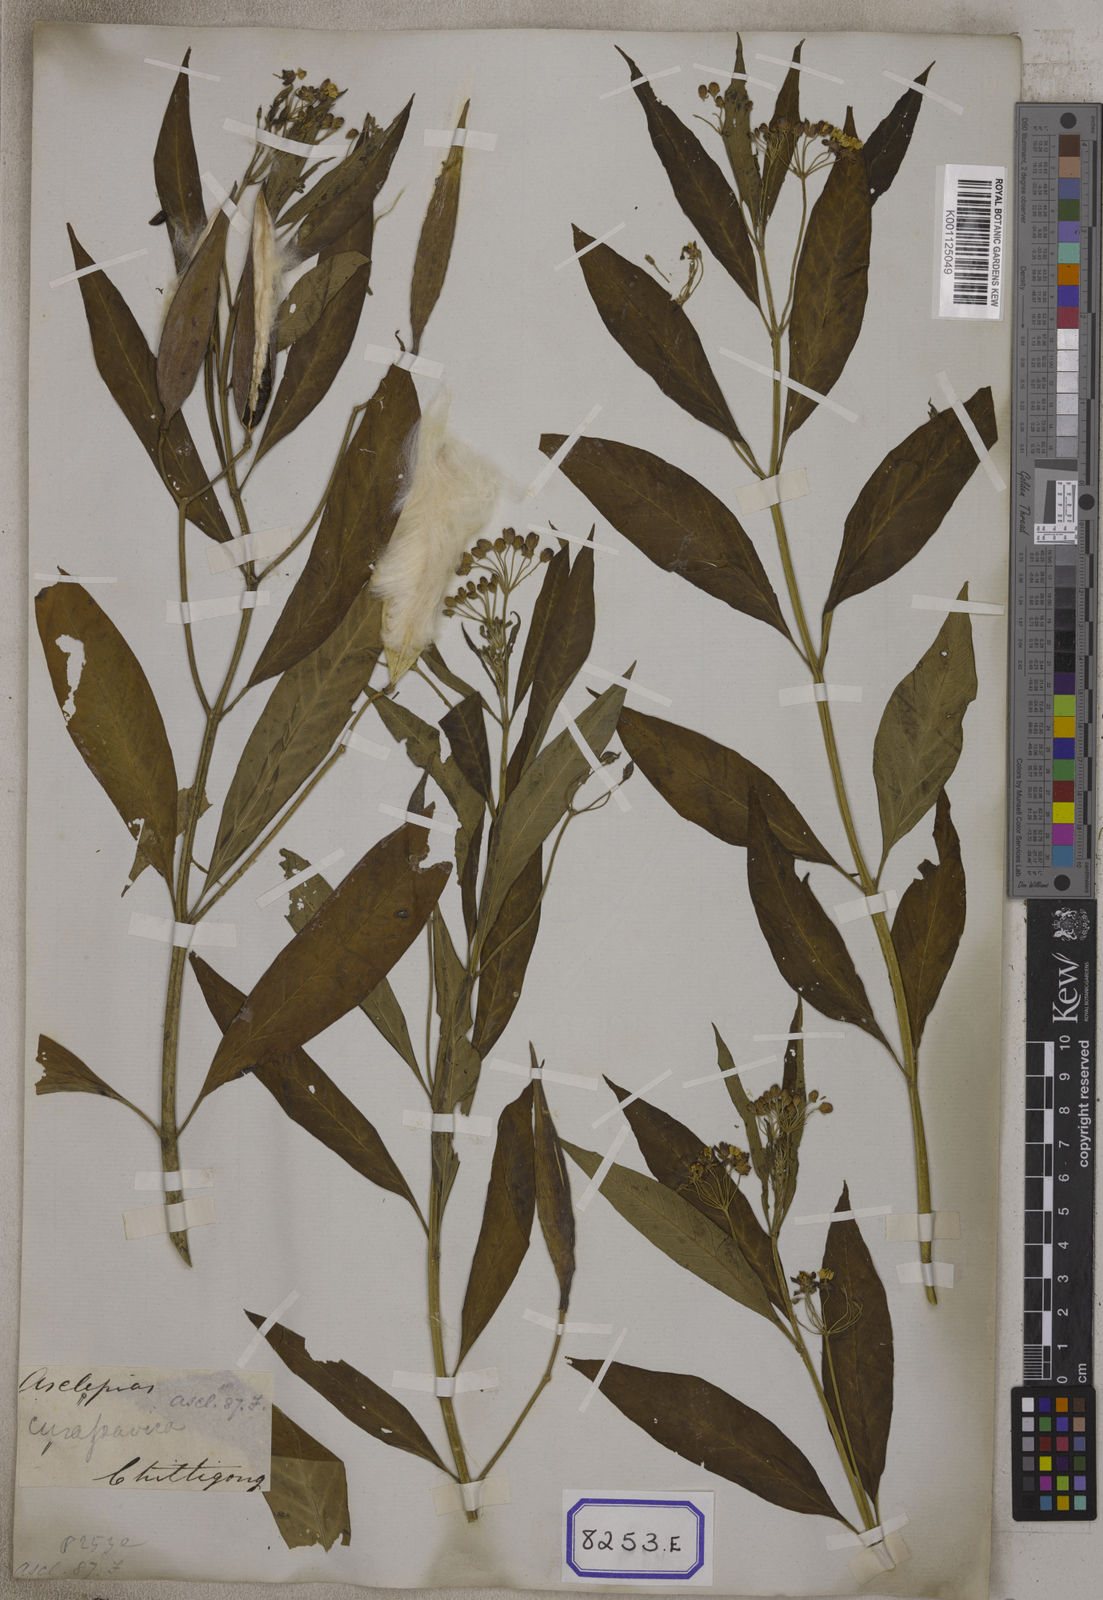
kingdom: Plantae
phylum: Tracheophyta
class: Magnoliopsida
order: Gentianales
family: Apocynaceae
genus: Asclepias
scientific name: Asclepias crispa
